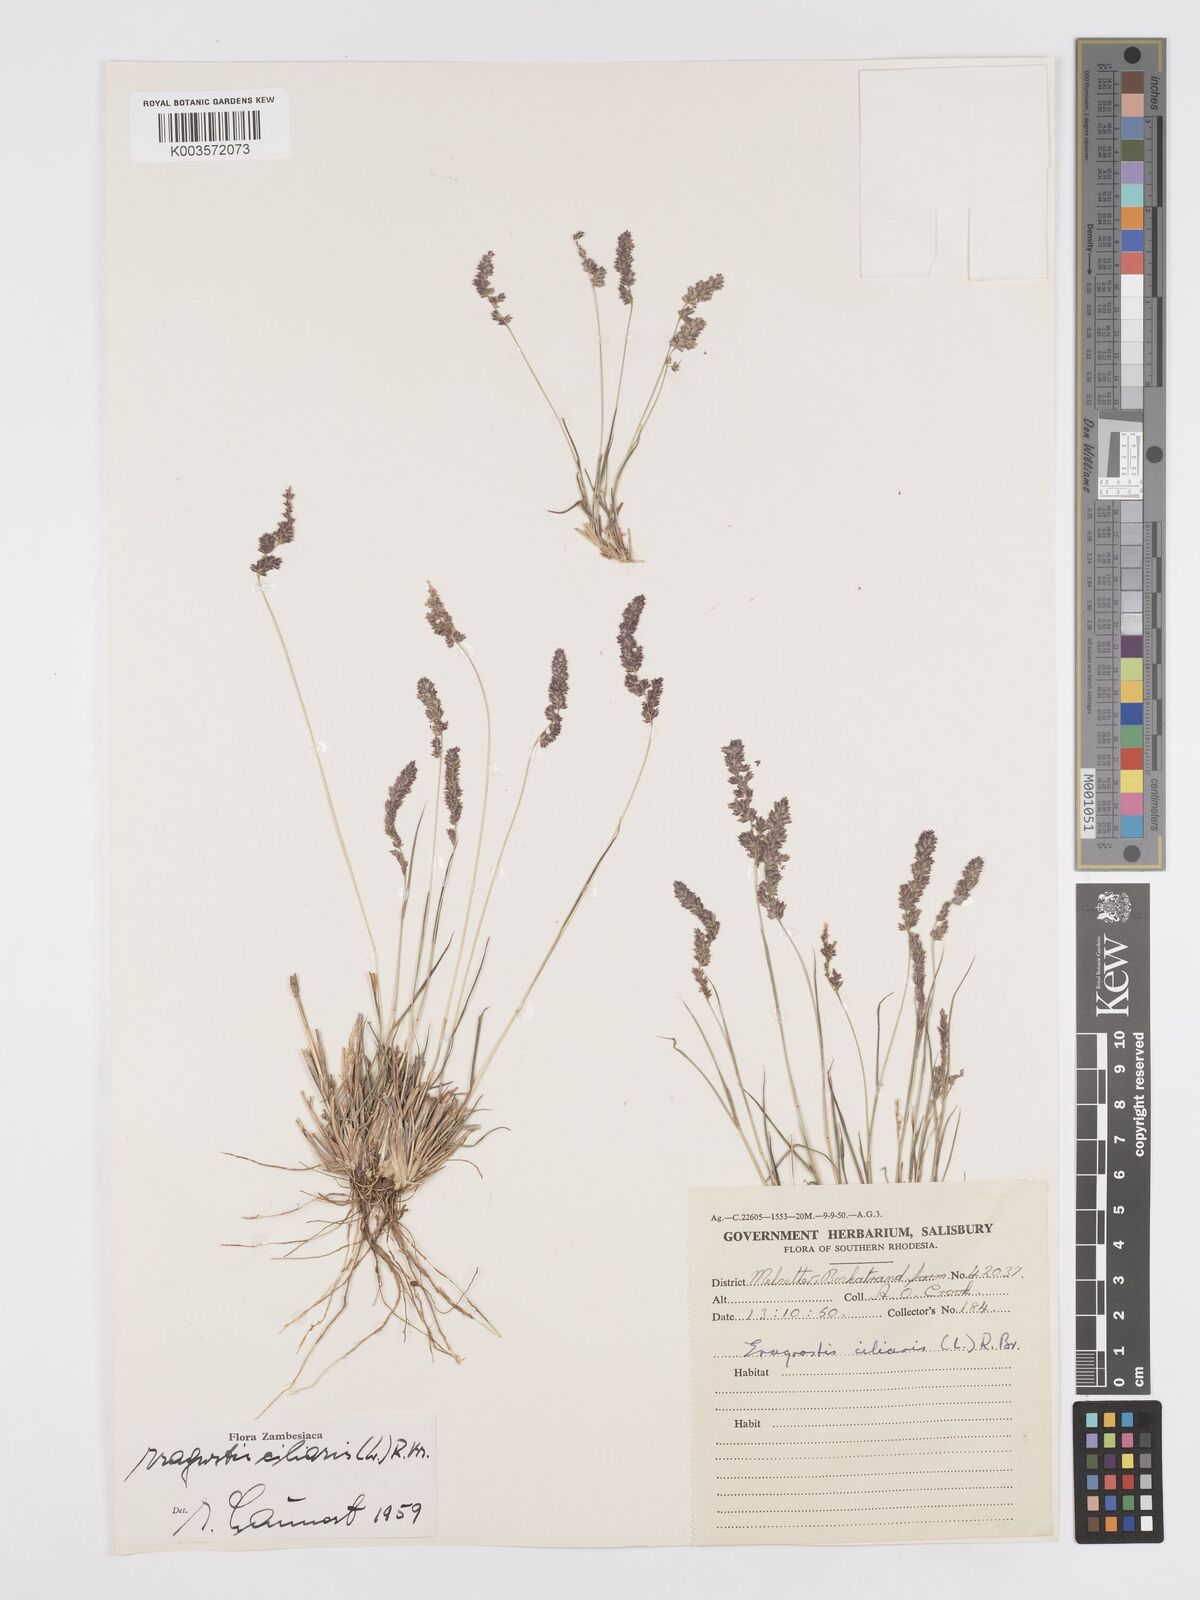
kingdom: Plantae
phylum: Tracheophyta
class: Liliopsida
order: Poales
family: Poaceae
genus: Eragrostis
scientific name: Eragrostis ciliaris
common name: Gophertail lovegrass
